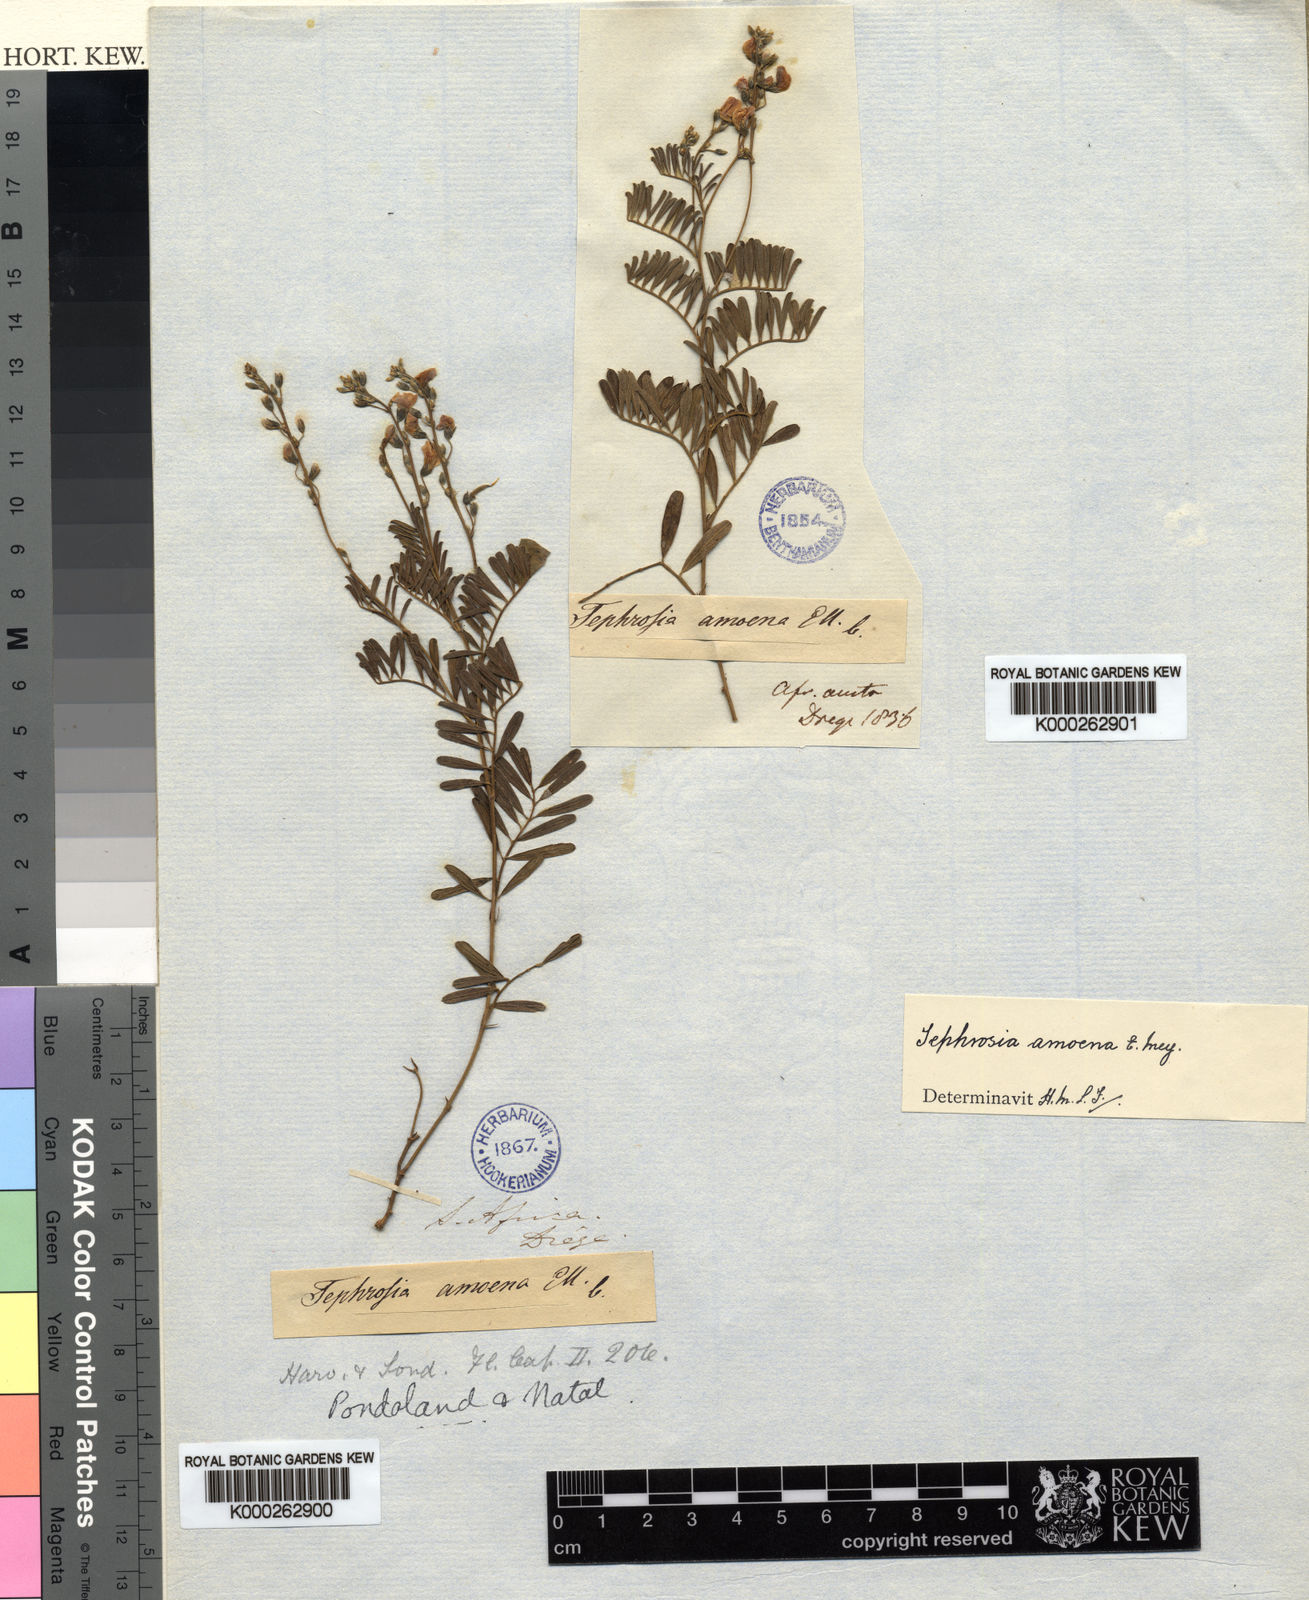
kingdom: Plantae
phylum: Tracheophyta
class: Magnoliopsida
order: Fabales
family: Fabaceae
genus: Tephrosia
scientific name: Tephrosia amoena
